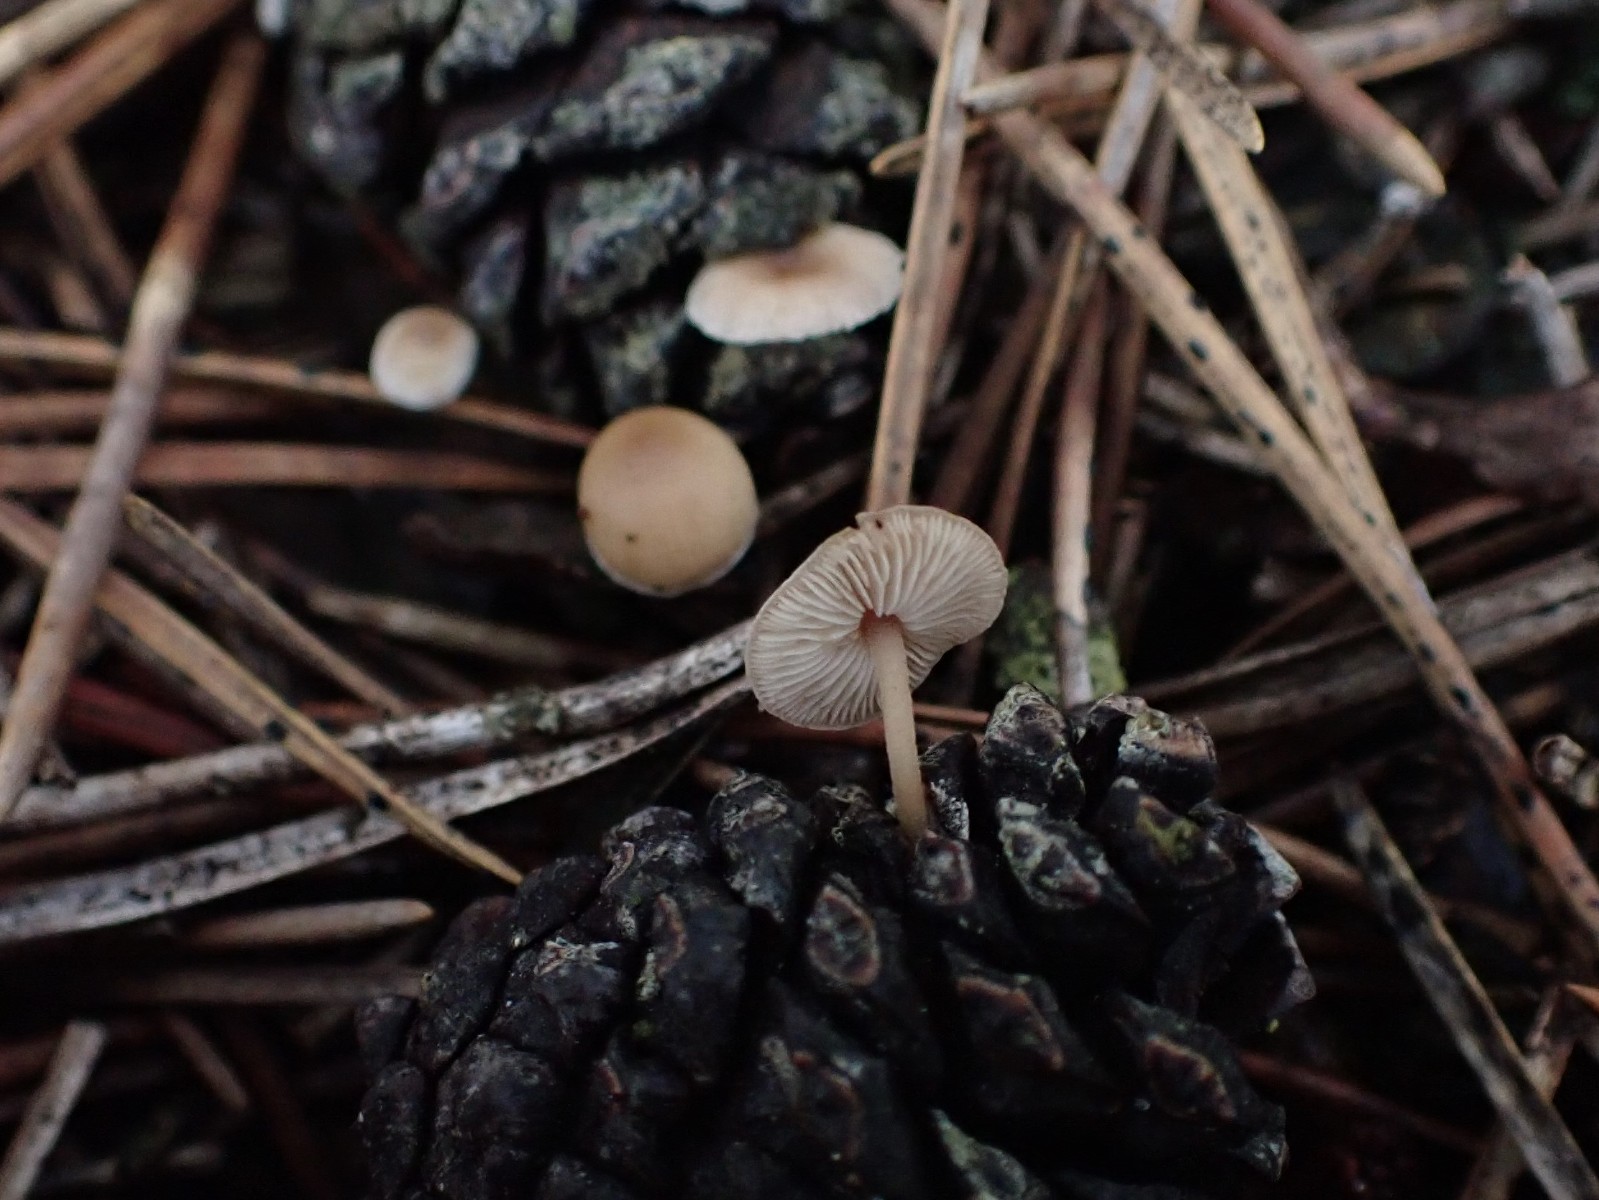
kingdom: Fungi
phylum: Basidiomycota
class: Agaricomycetes
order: Agaricales
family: Marasmiaceae
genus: Baeospora
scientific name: Baeospora myosura
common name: koglebruskhat
